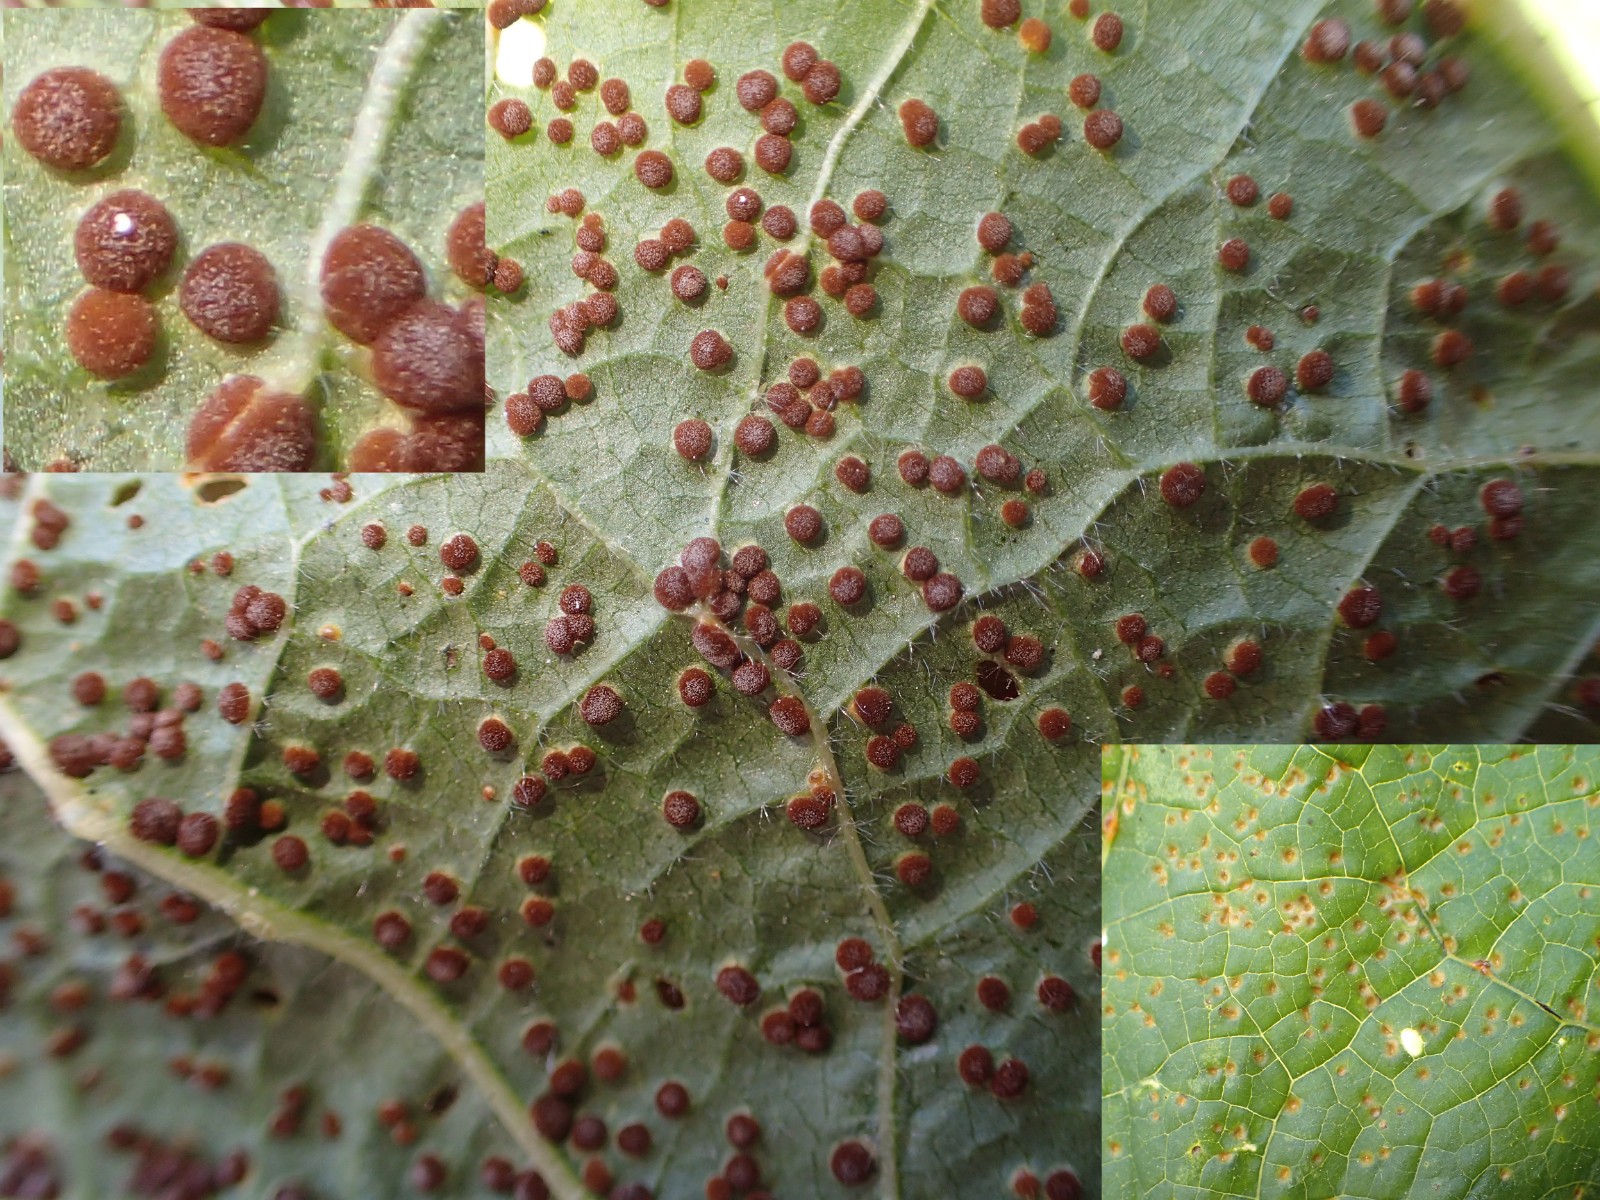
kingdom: Fungi
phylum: Basidiomycota
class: Pucciniomycetes
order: Pucciniales
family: Pucciniaceae
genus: Puccinia
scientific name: Puccinia malvacearum
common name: stokrose-tvecellerust
